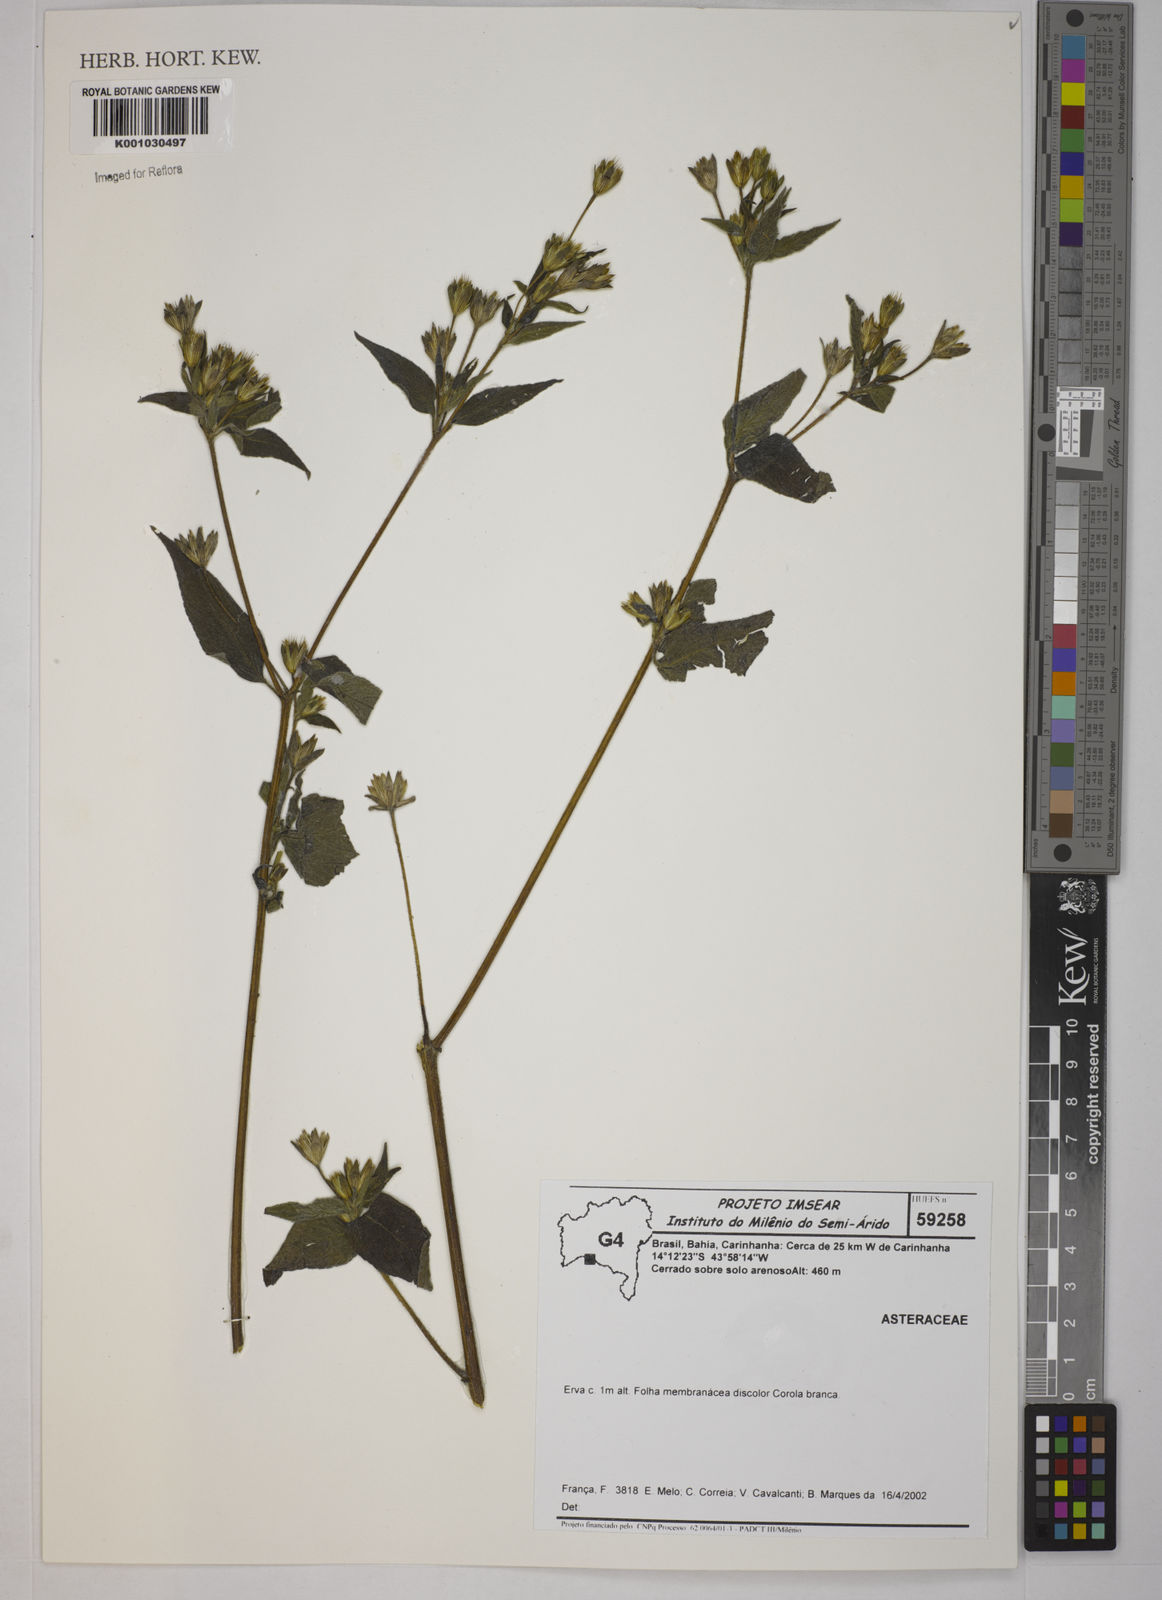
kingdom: Plantae
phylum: Tracheophyta
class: Magnoliopsida
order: Asterales
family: Asteraceae
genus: Blainvillea
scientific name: Blainvillea dichotoma
